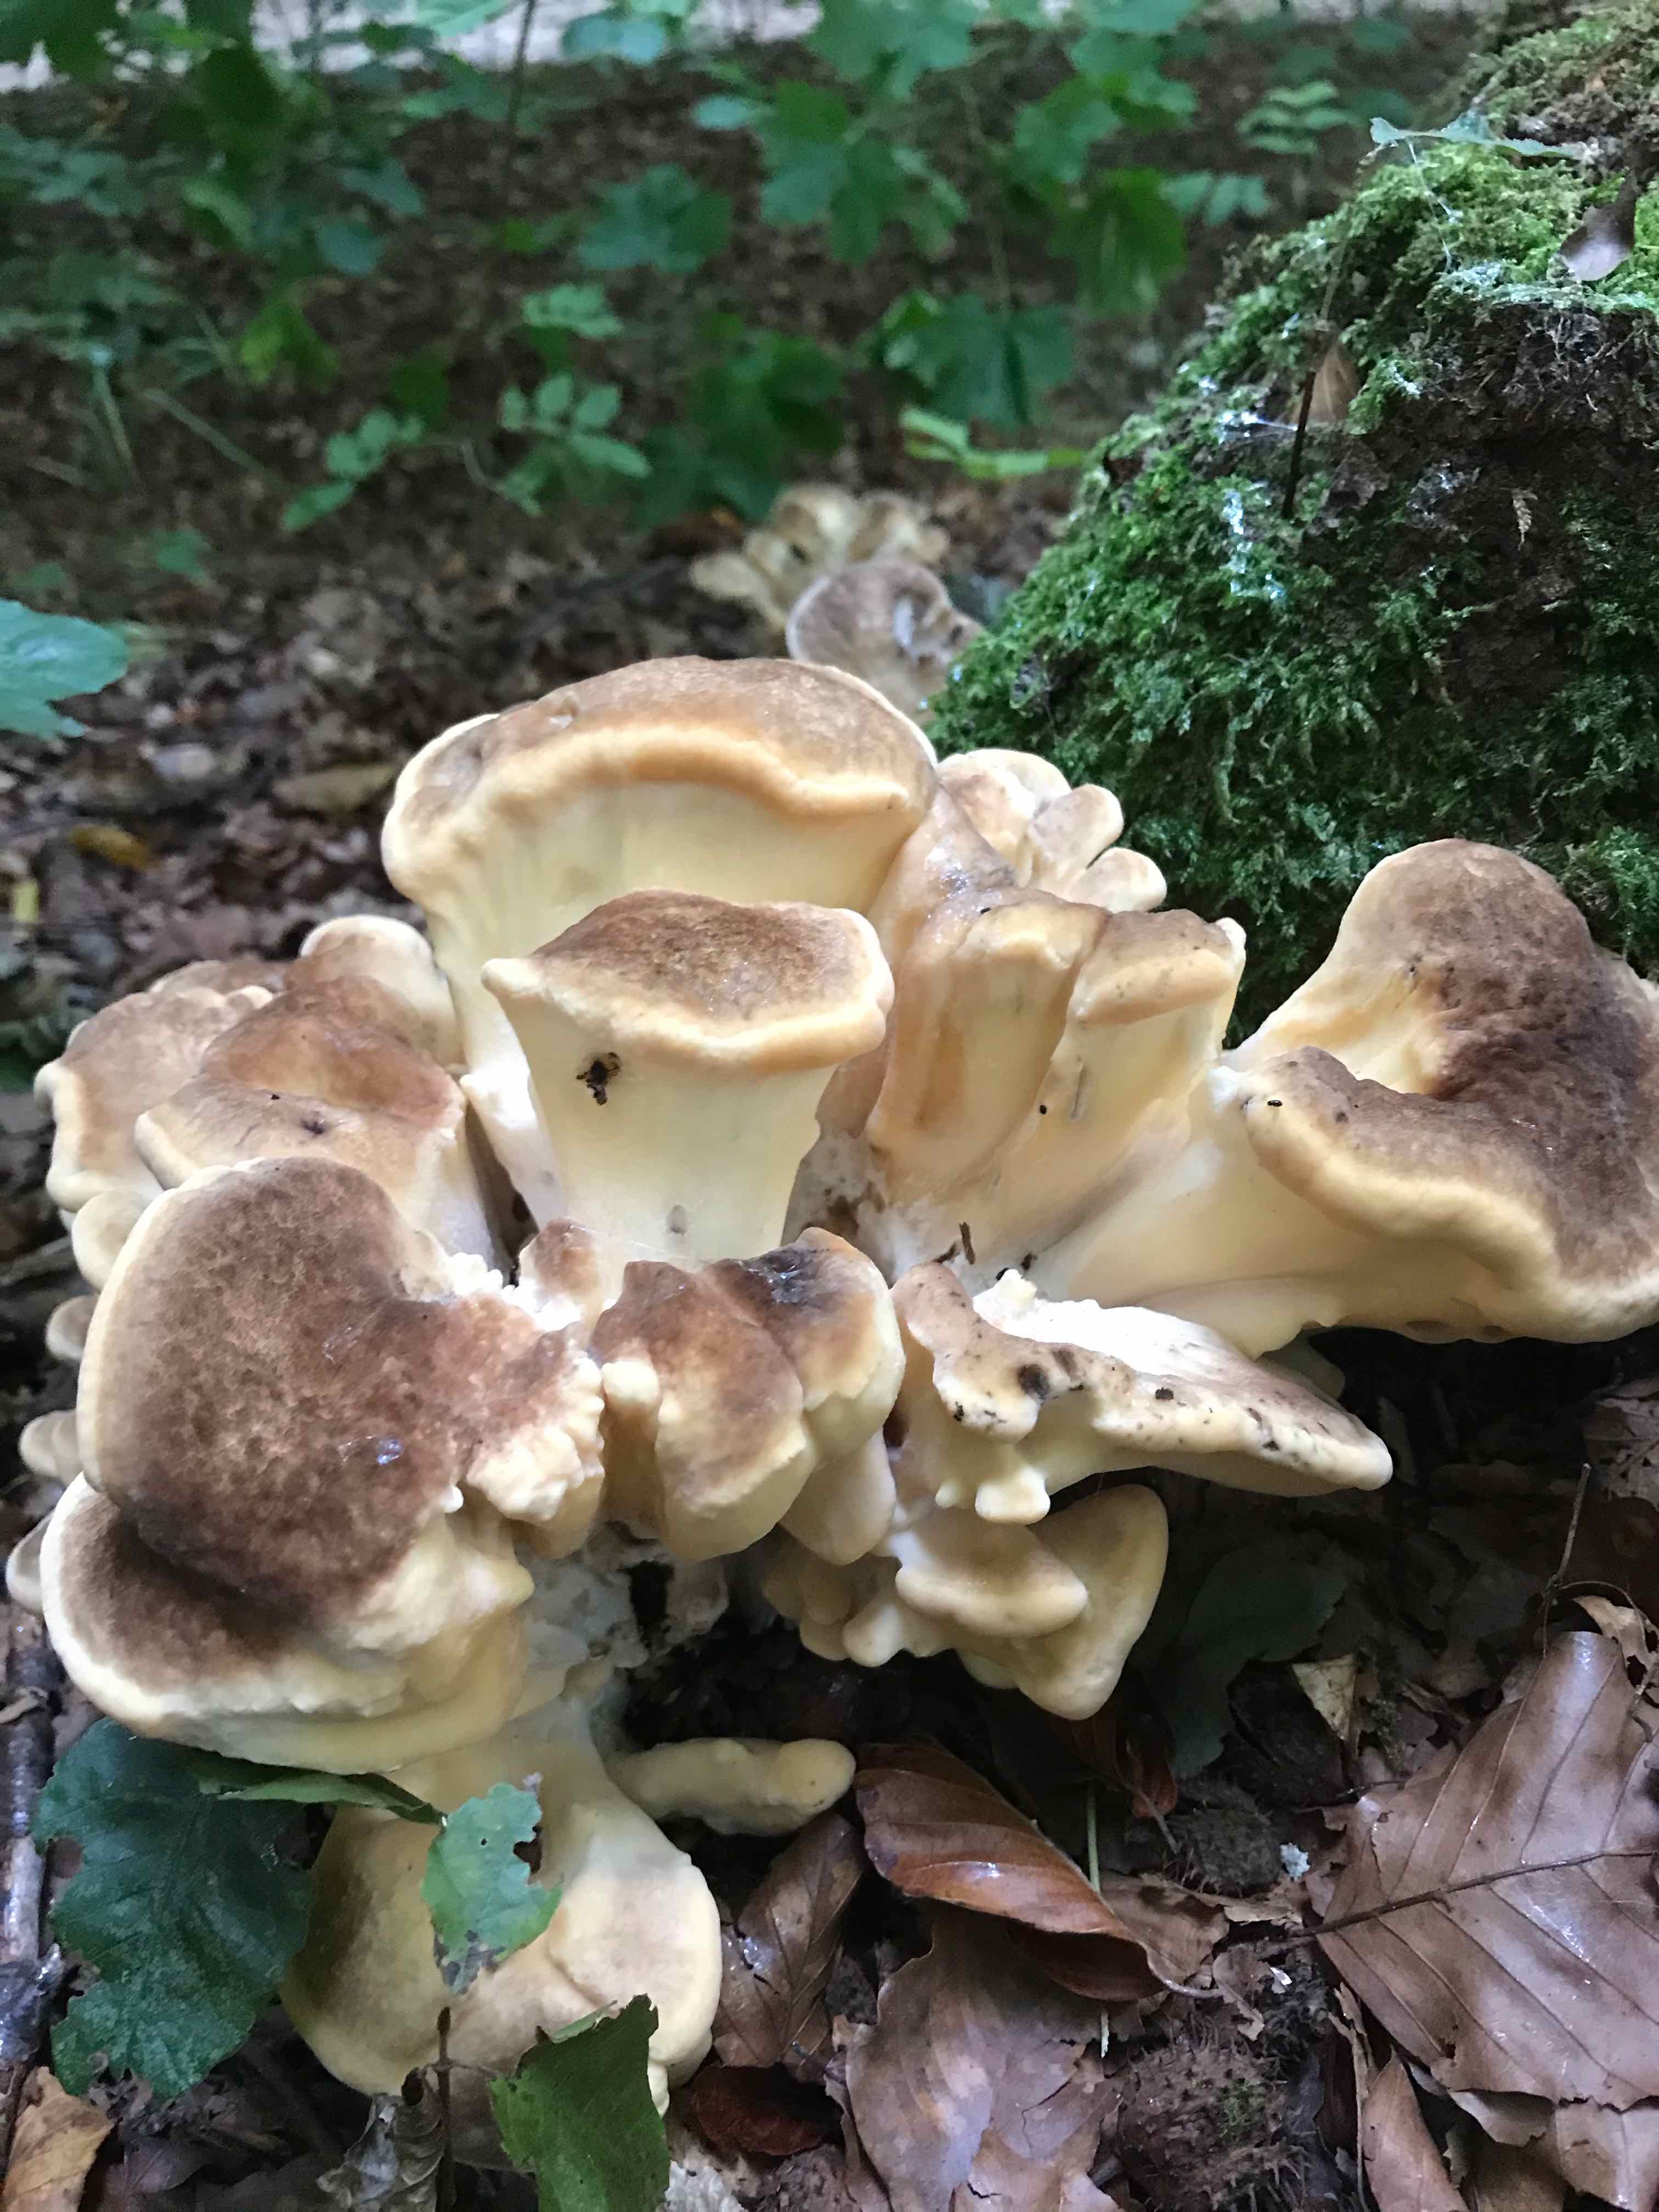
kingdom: Fungi
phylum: Basidiomycota
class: Agaricomycetes
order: Polyporales
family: Meripilaceae
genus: Meripilus
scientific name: Meripilus giganteus
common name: kæmpeporesvamp
